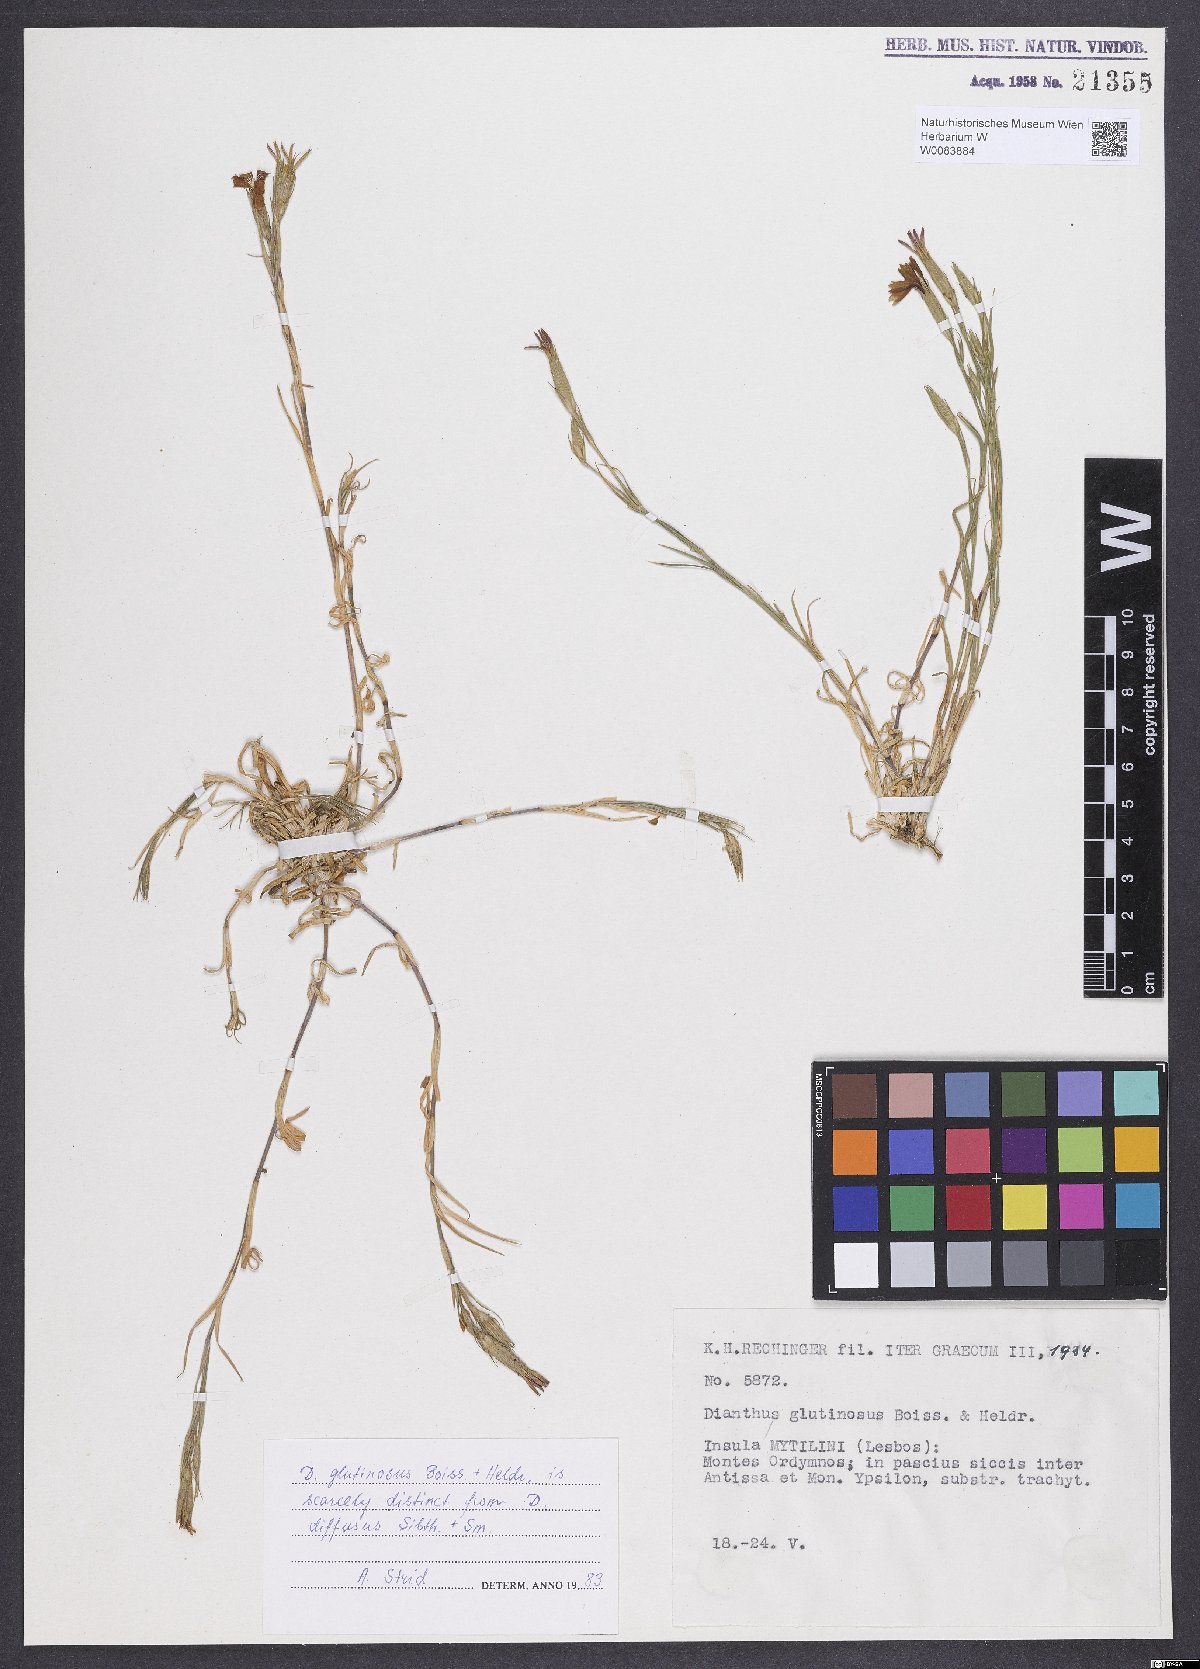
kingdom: Plantae
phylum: Tracheophyta
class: Magnoliopsida
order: Caryophyllales
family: Caryophyllaceae
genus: Dianthus
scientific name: Dianthus glutinosus
